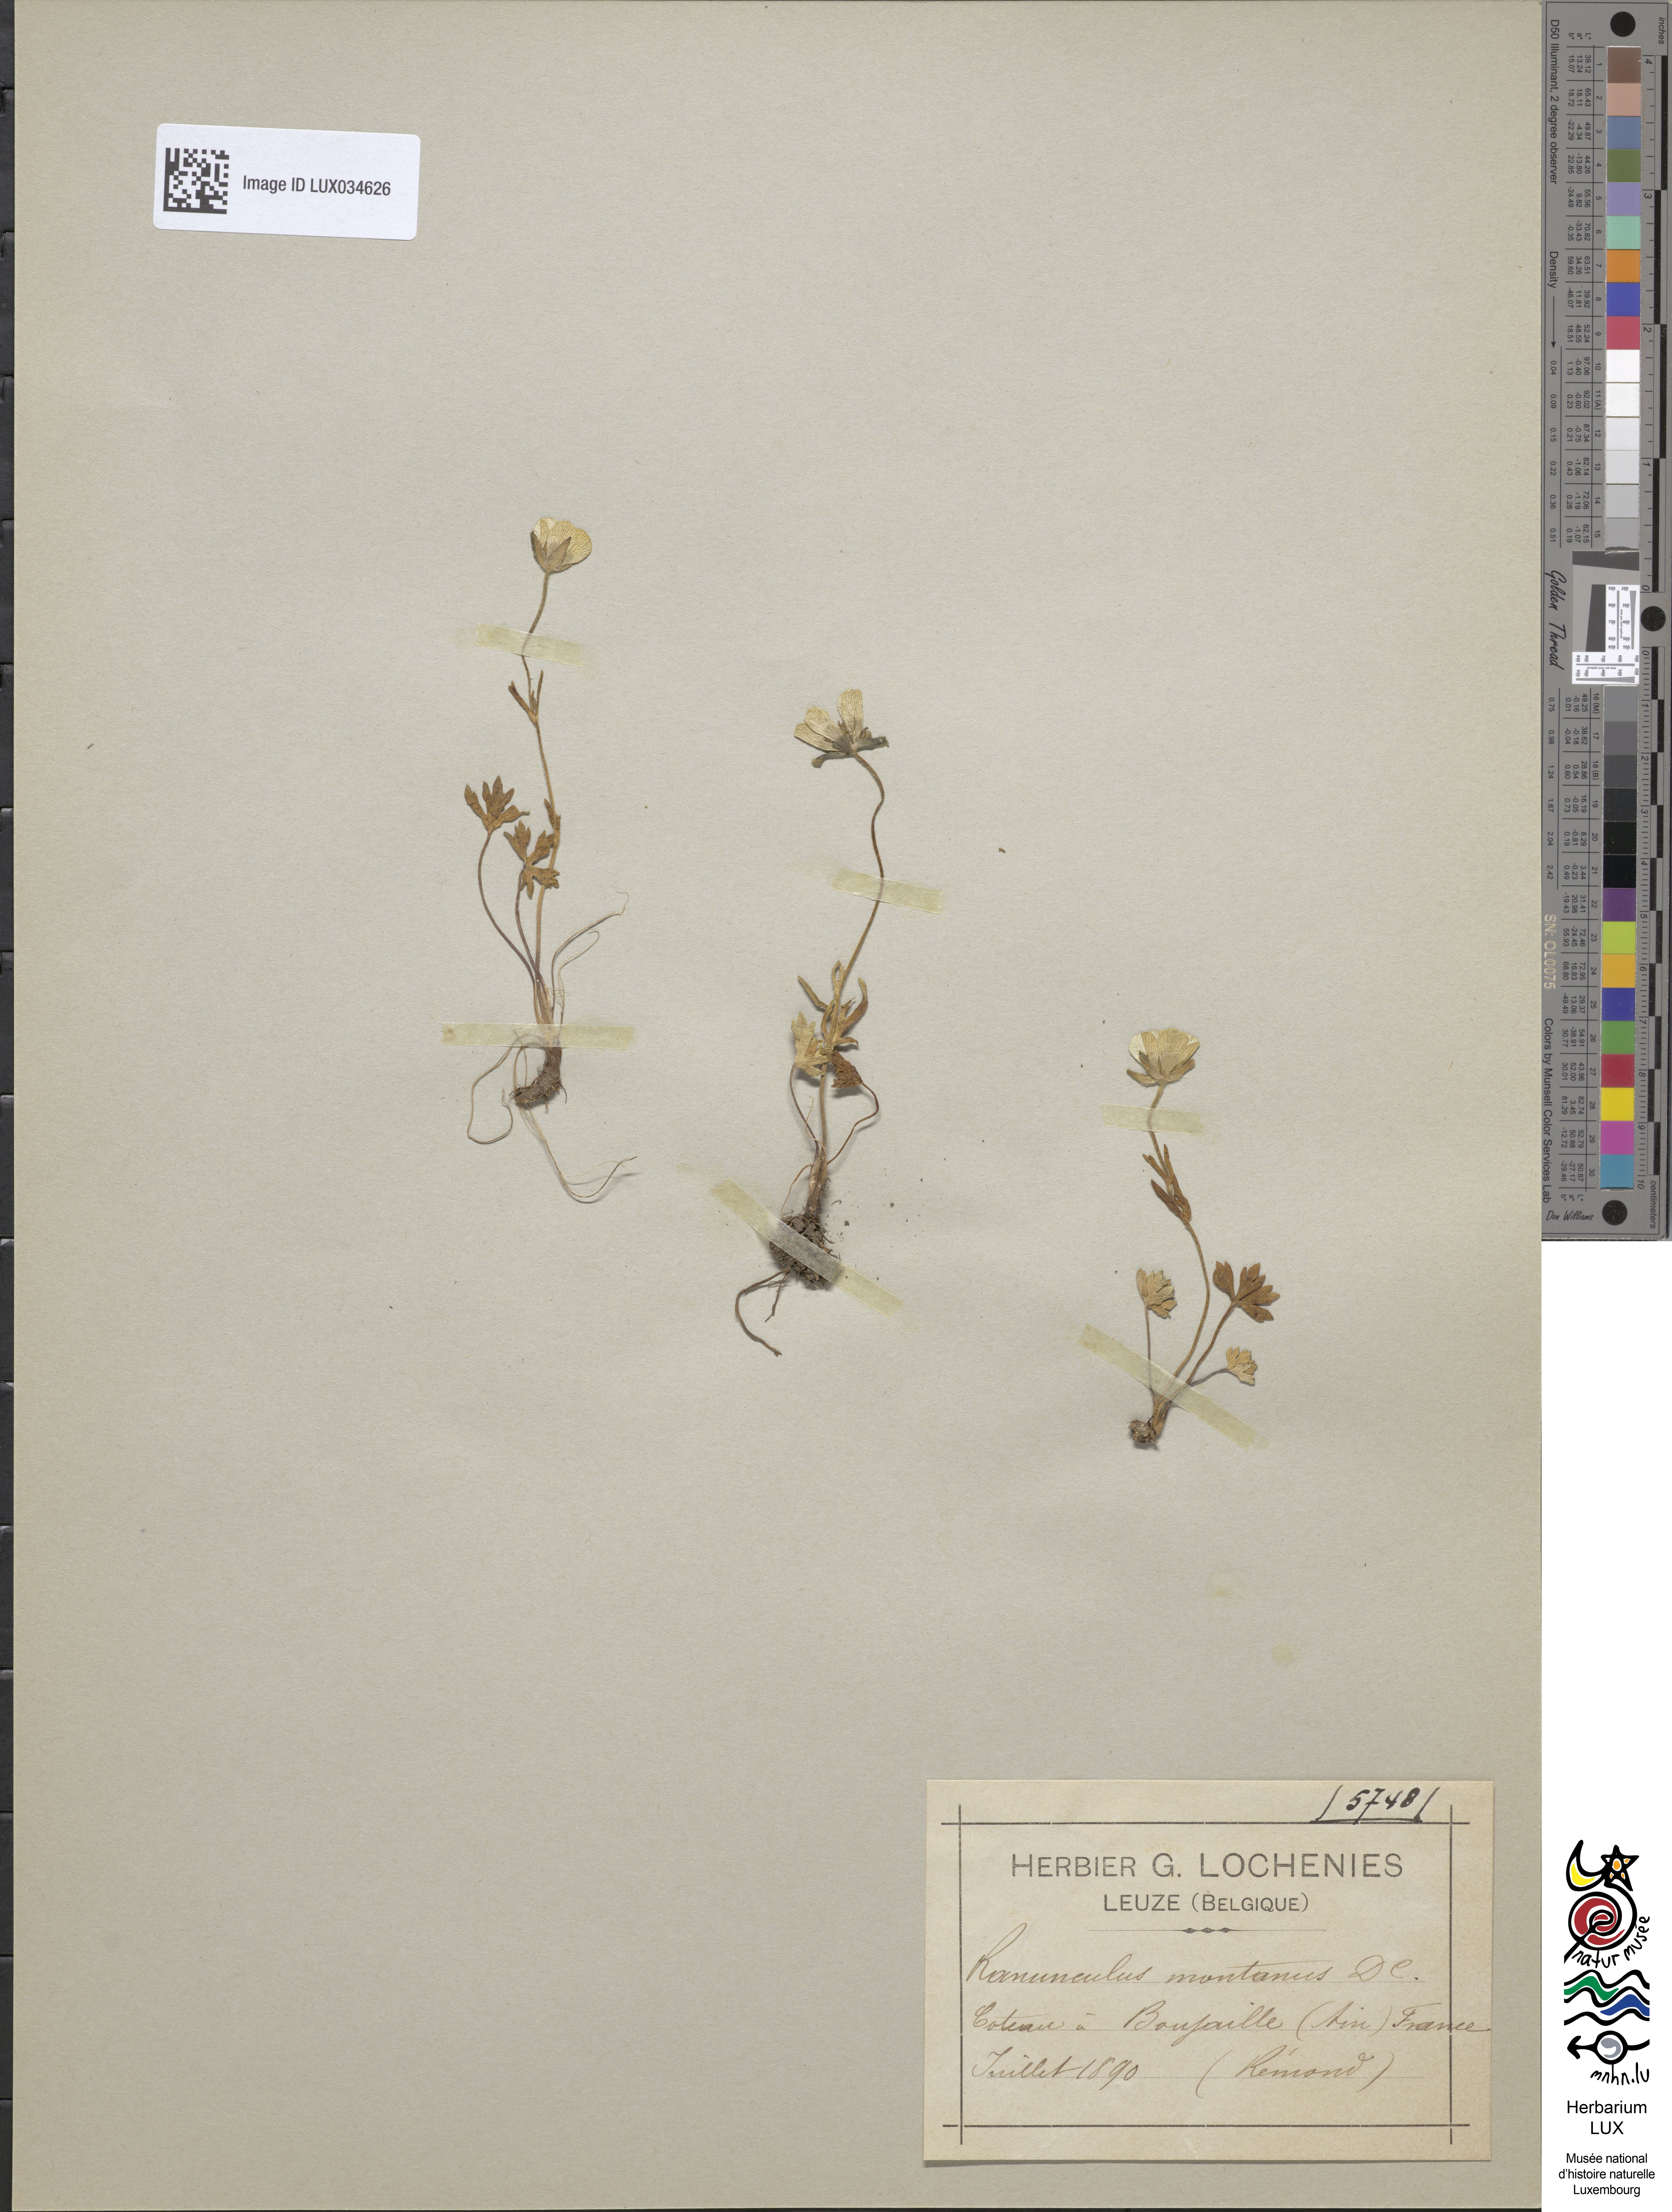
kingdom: Plantae
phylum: Tracheophyta
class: Magnoliopsida
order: Ranunculales
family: Ranunculaceae
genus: Ranunculus
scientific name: Ranunculus montanus
